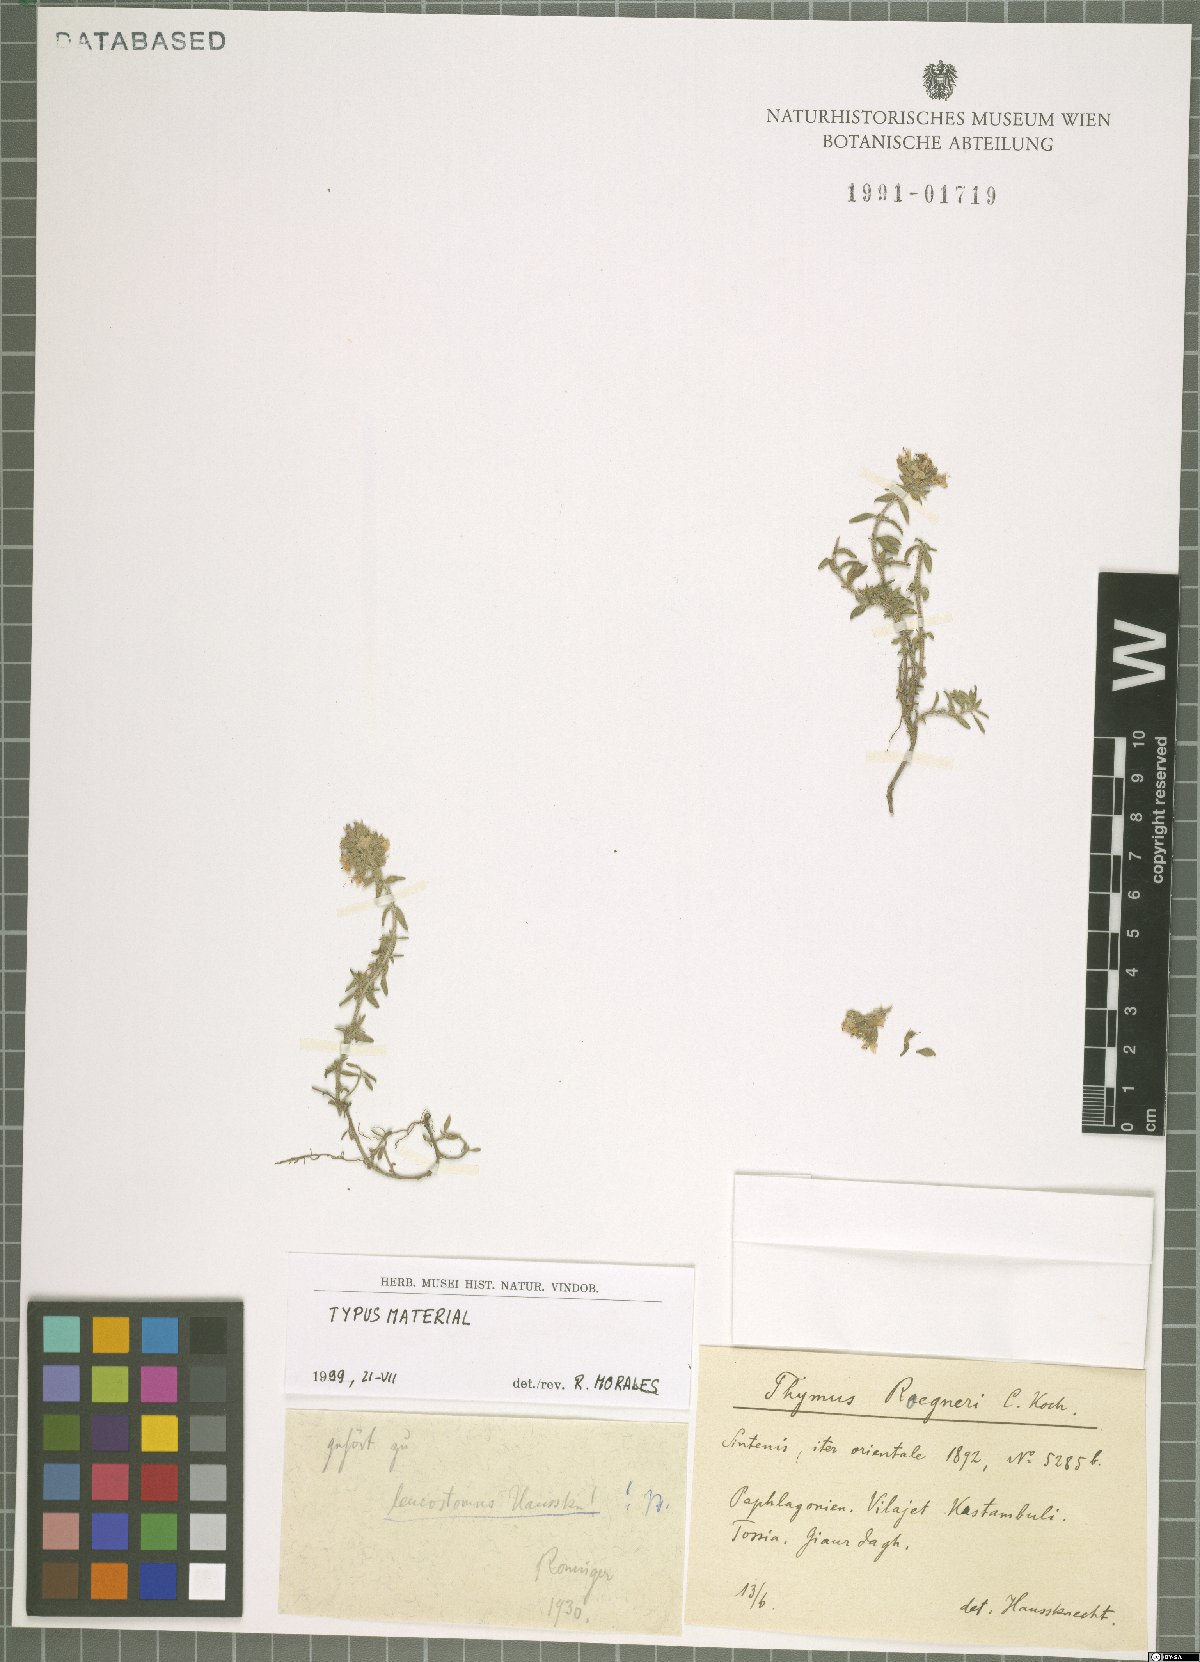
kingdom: Plantae
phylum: Tracheophyta
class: Magnoliopsida
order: Lamiales
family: Lamiaceae
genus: Thymus
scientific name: Thymus leucostomus
